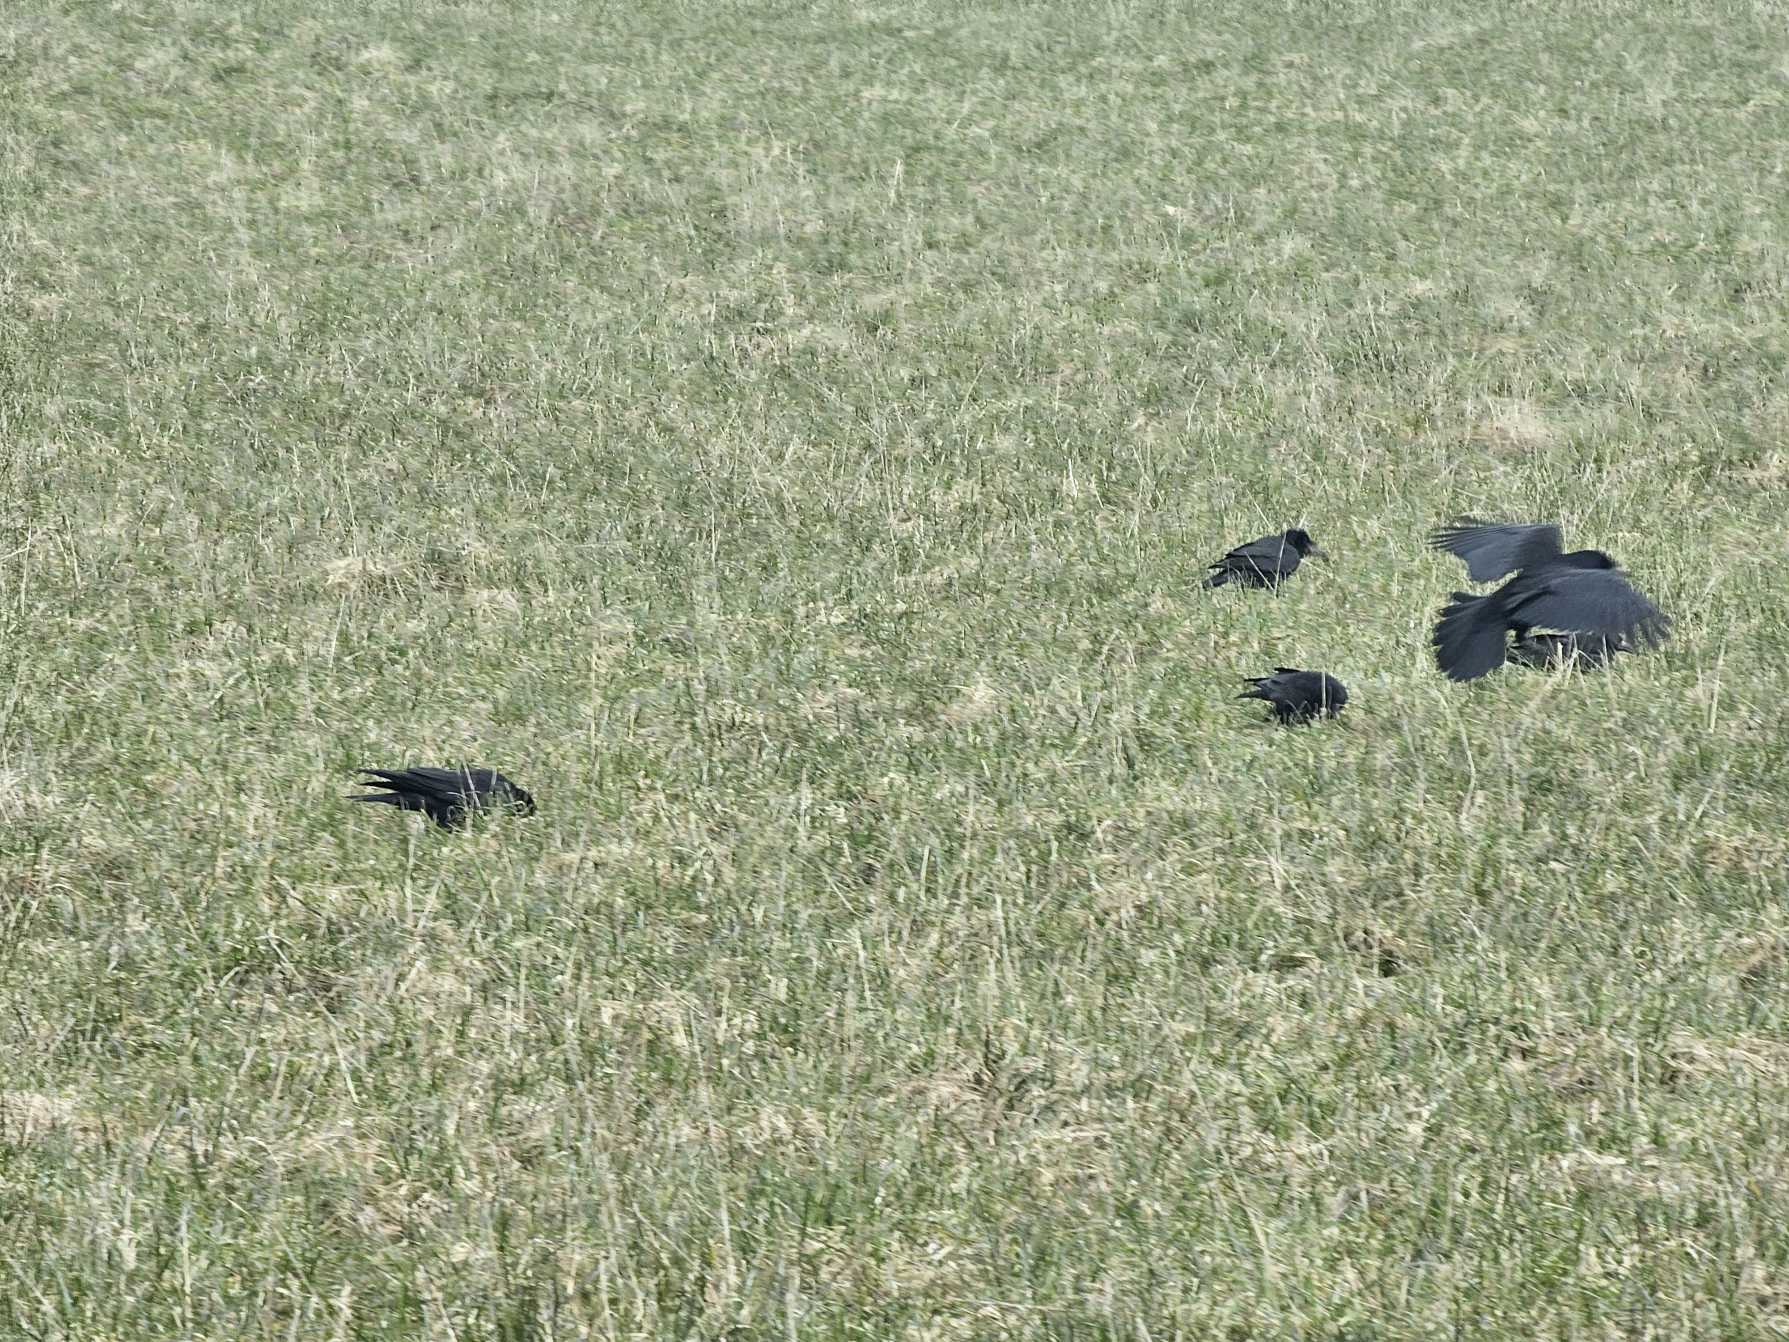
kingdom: Animalia
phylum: Chordata
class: Aves
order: Passeriformes
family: Corvidae
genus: Corvus
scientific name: Corvus frugilegus
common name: Råge
